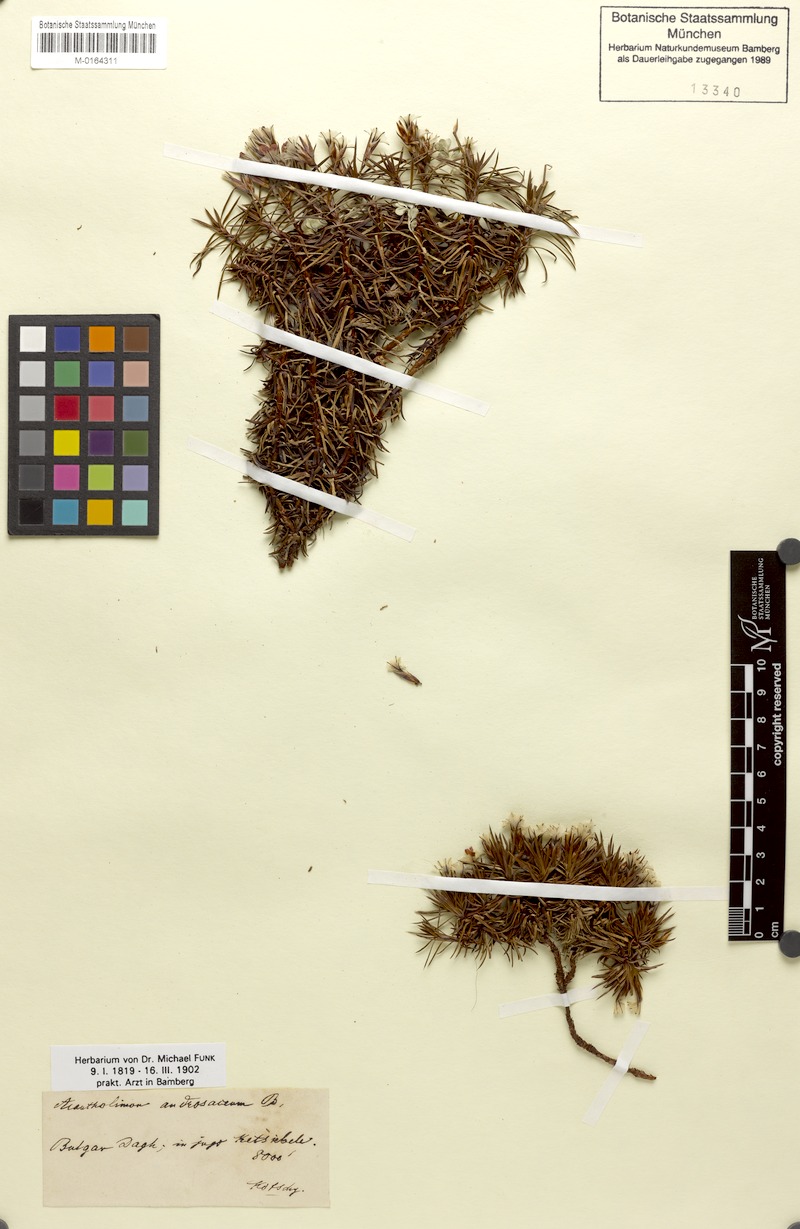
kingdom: Plantae
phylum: Tracheophyta
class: Magnoliopsida
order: Caryophyllales
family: Plumbaginaceae
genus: Acantholimon
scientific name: Acantholimon ulicinum
